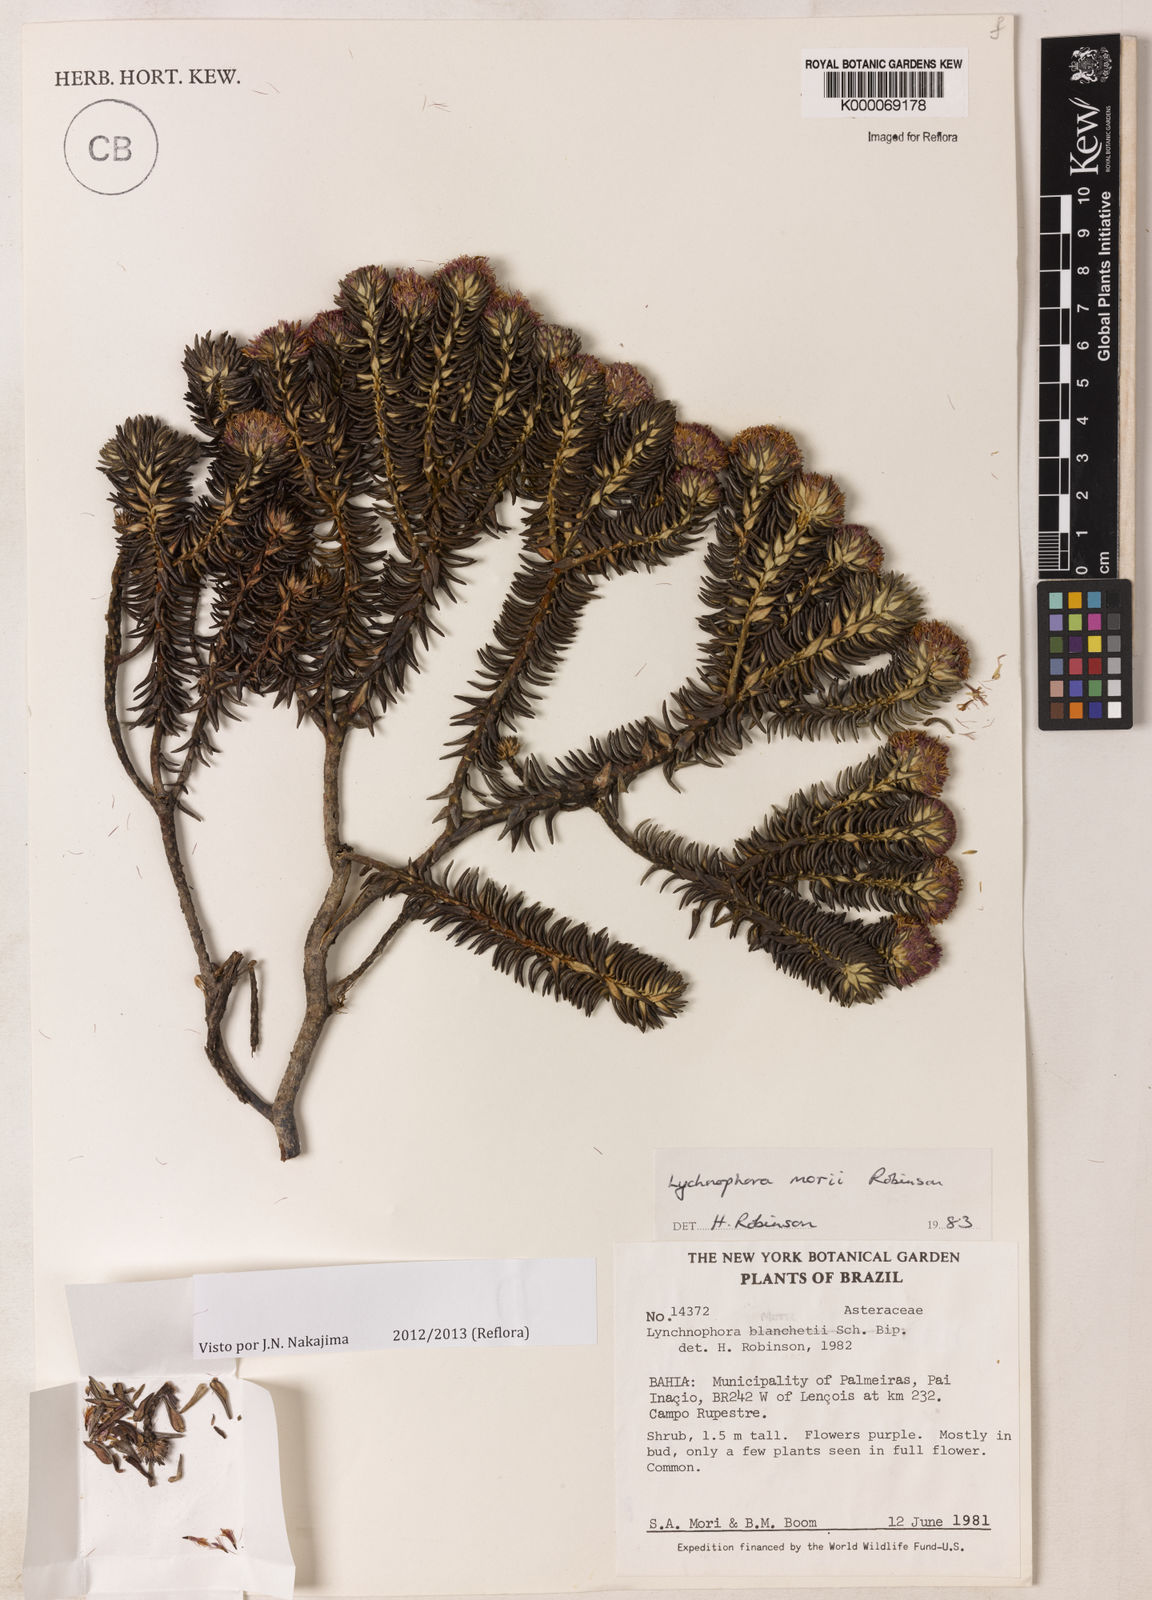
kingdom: Plantae
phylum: Tracheophyta
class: Magnoliopsida
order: Asterales
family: Asteraceae
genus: Lychnophorella
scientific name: Lychnophorella morii
